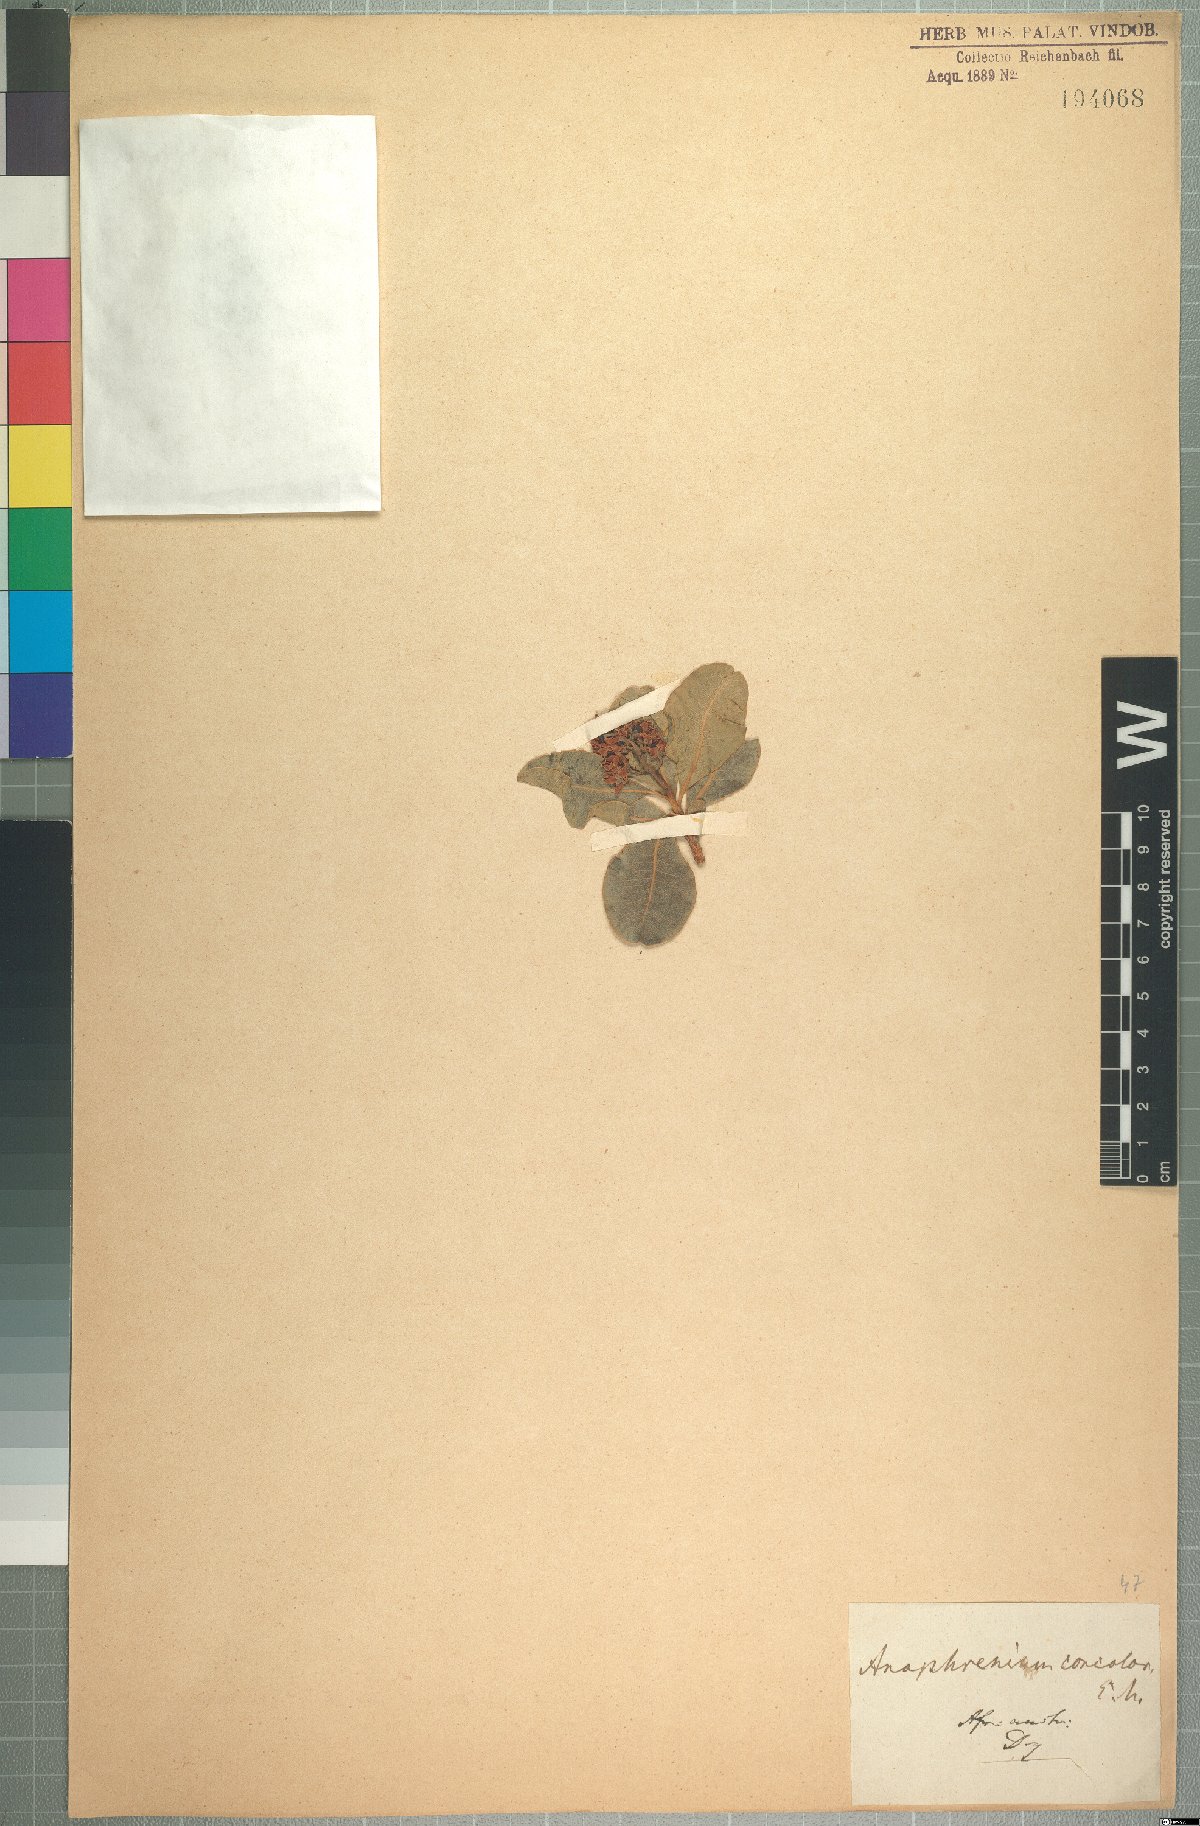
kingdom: Plantae
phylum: Tracheophyta
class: Magnoliopsida
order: Sapindales
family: Anacardiaceae
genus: Ozoroa
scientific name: Ozoroa concolor
